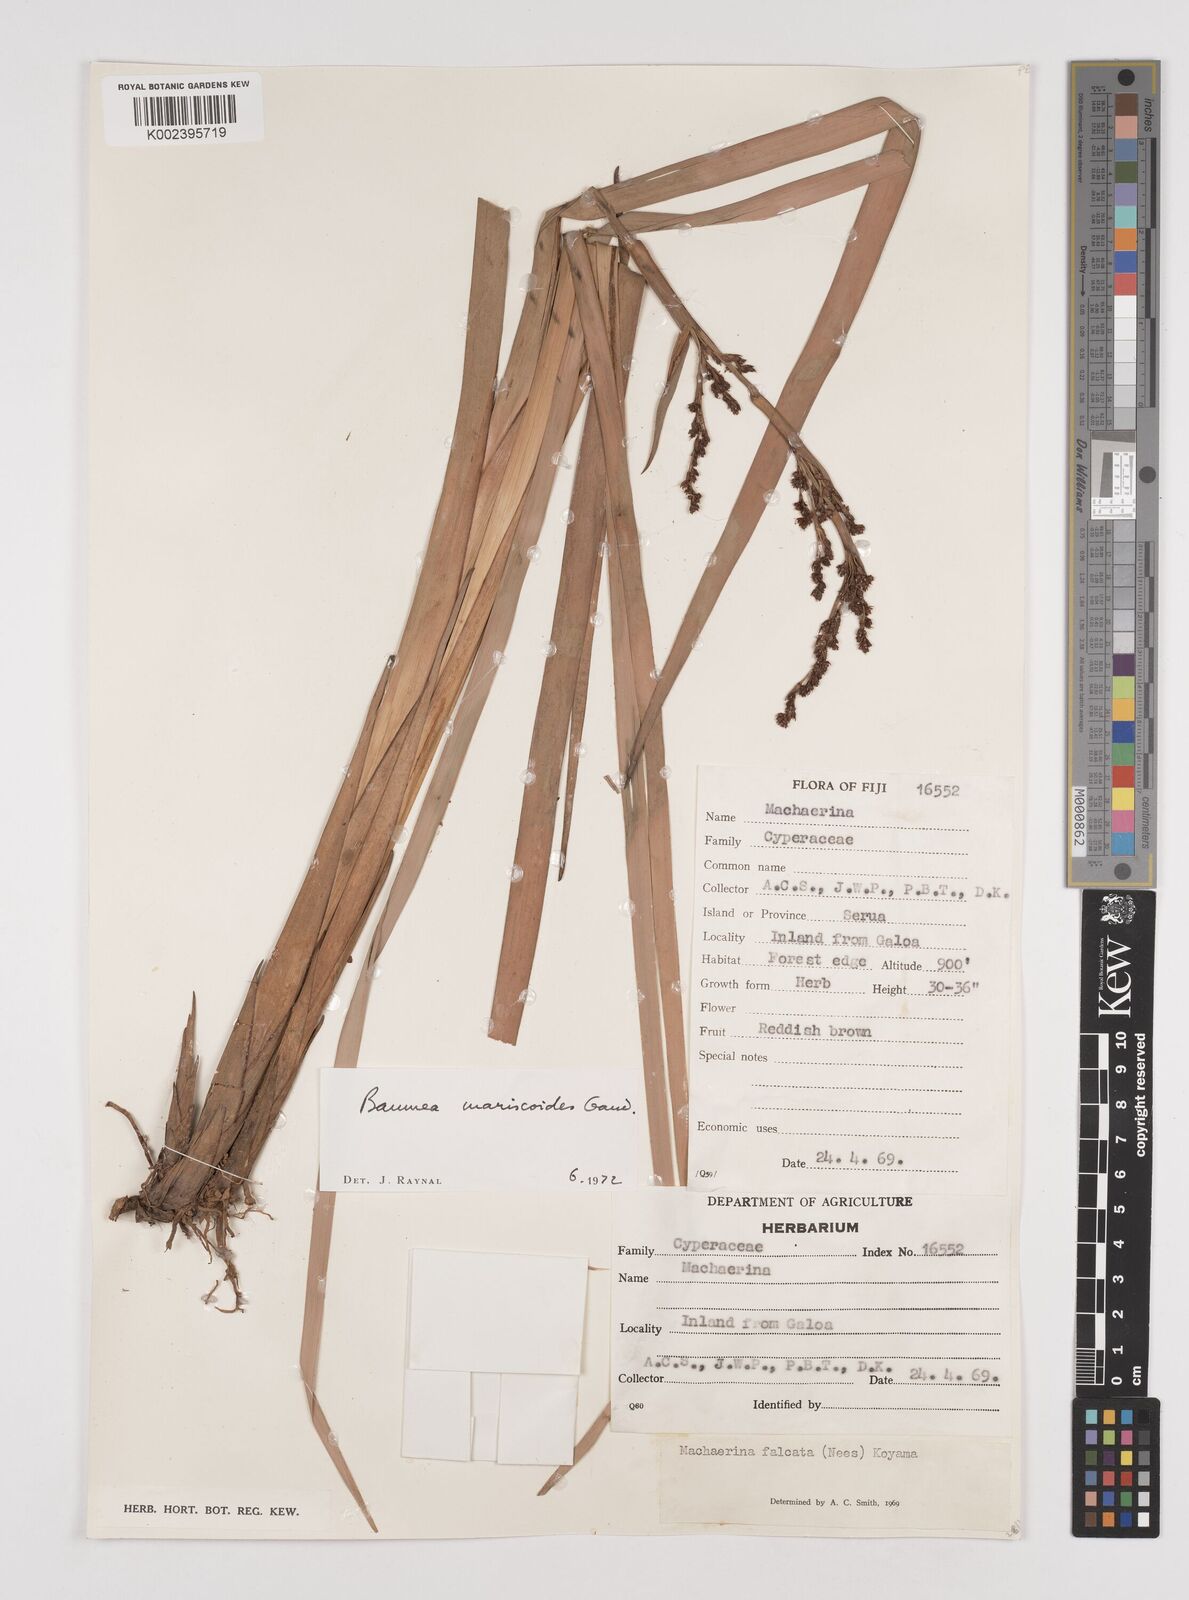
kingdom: Plantae
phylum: Tracheophyta
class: Liliopsida
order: Poales
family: Cyperaceae
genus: Machaerina
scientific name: Machaerina mariscoides
